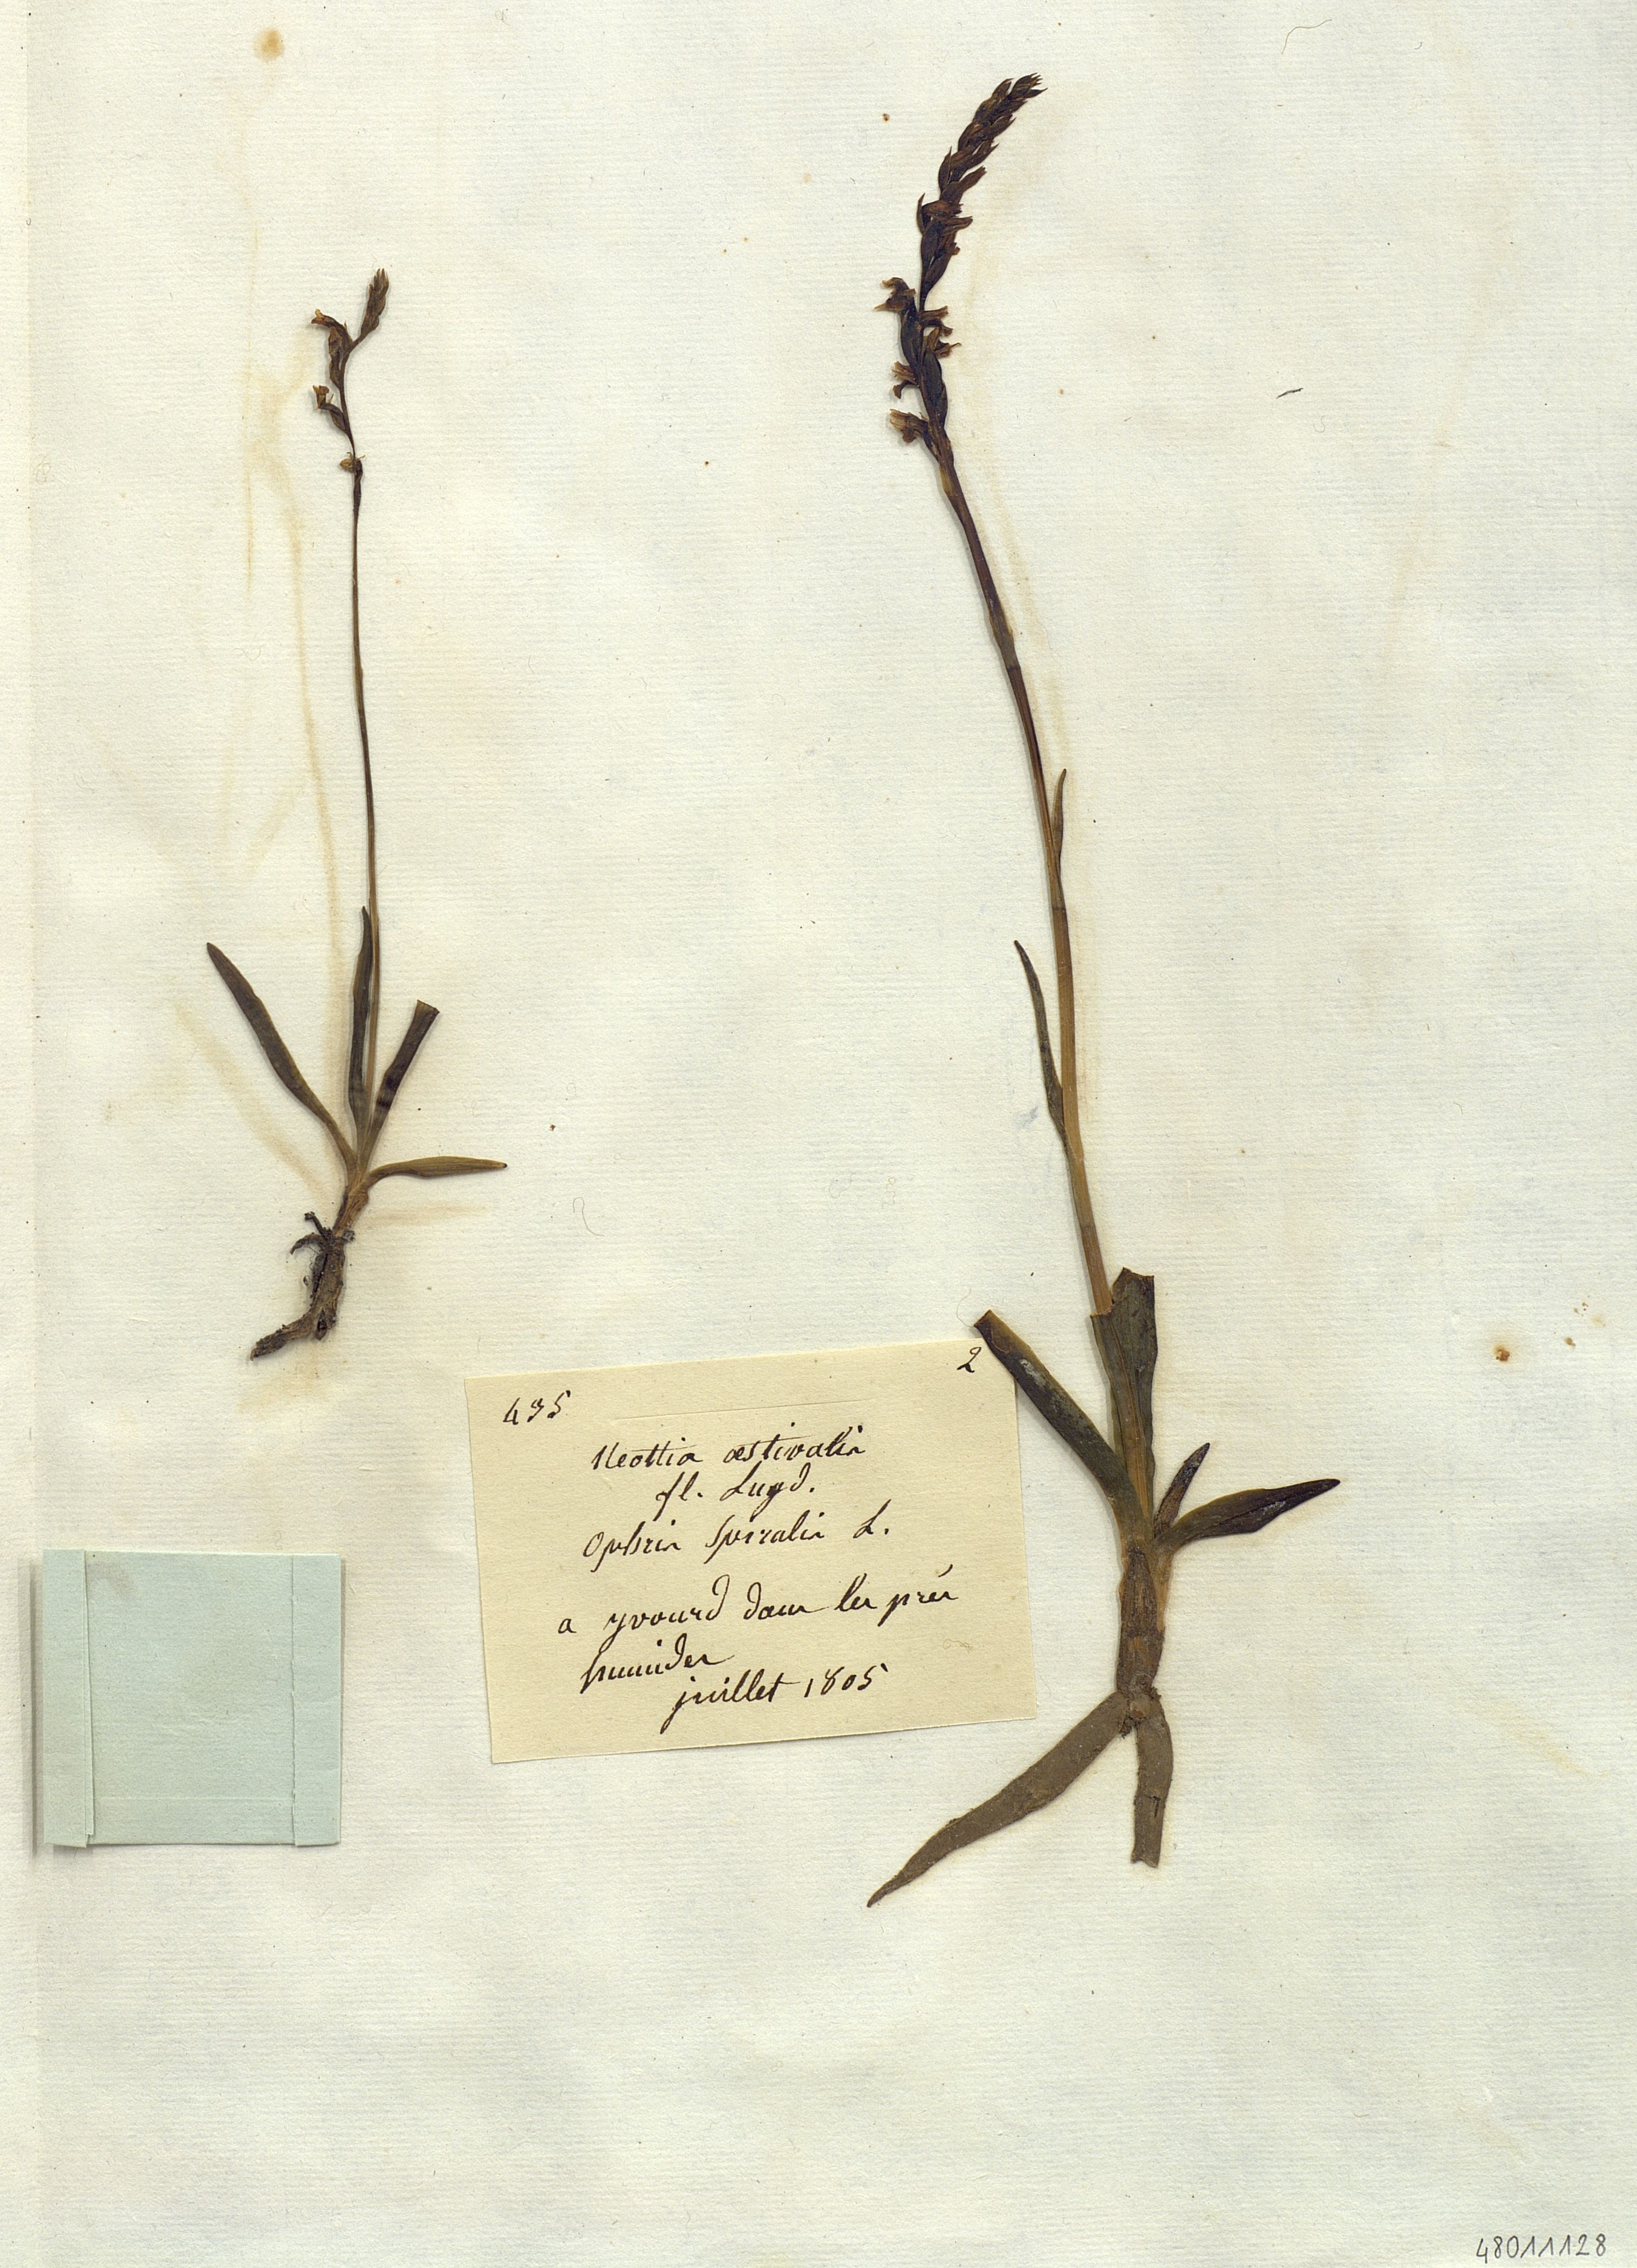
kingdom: Plantae
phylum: Tracheophyta
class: Liliopsida
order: Asparagales
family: Orchidaceae
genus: Neottia
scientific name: Neottia aestivalis
